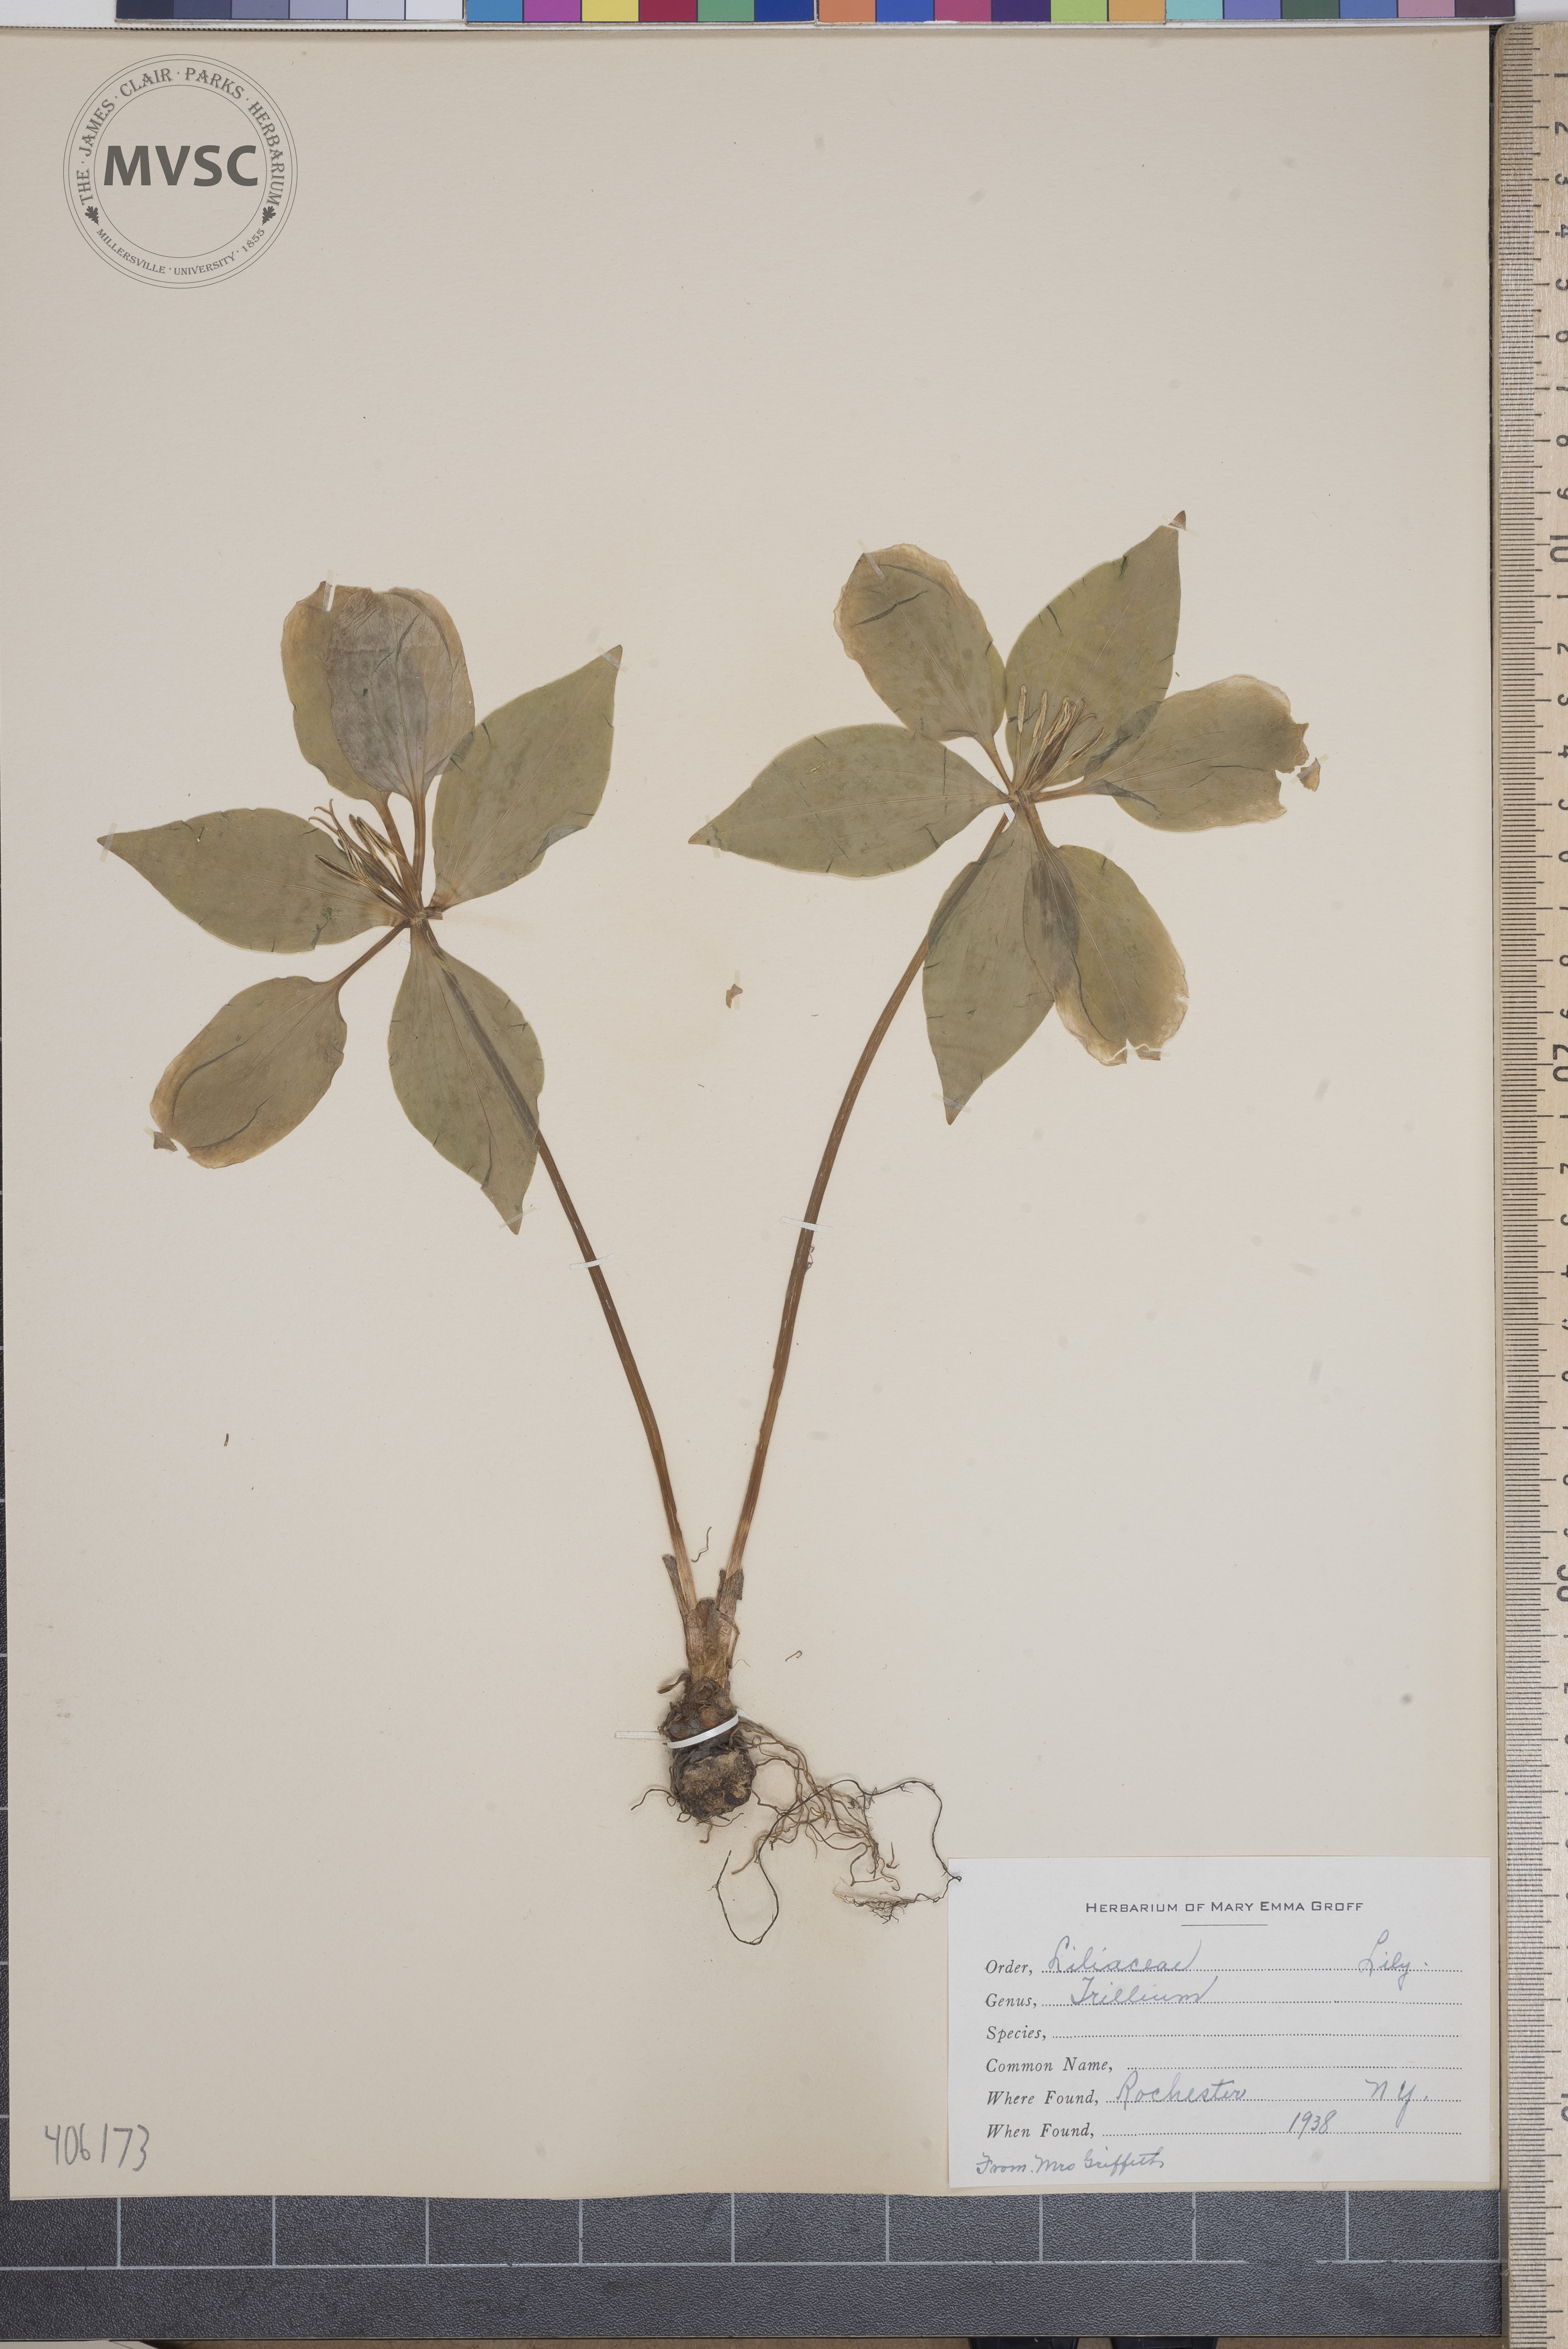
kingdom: Plantae
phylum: Tracheophyta
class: Liliopsida
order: Liliales
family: Melanthiaceae
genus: Trillium
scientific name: Trillium
